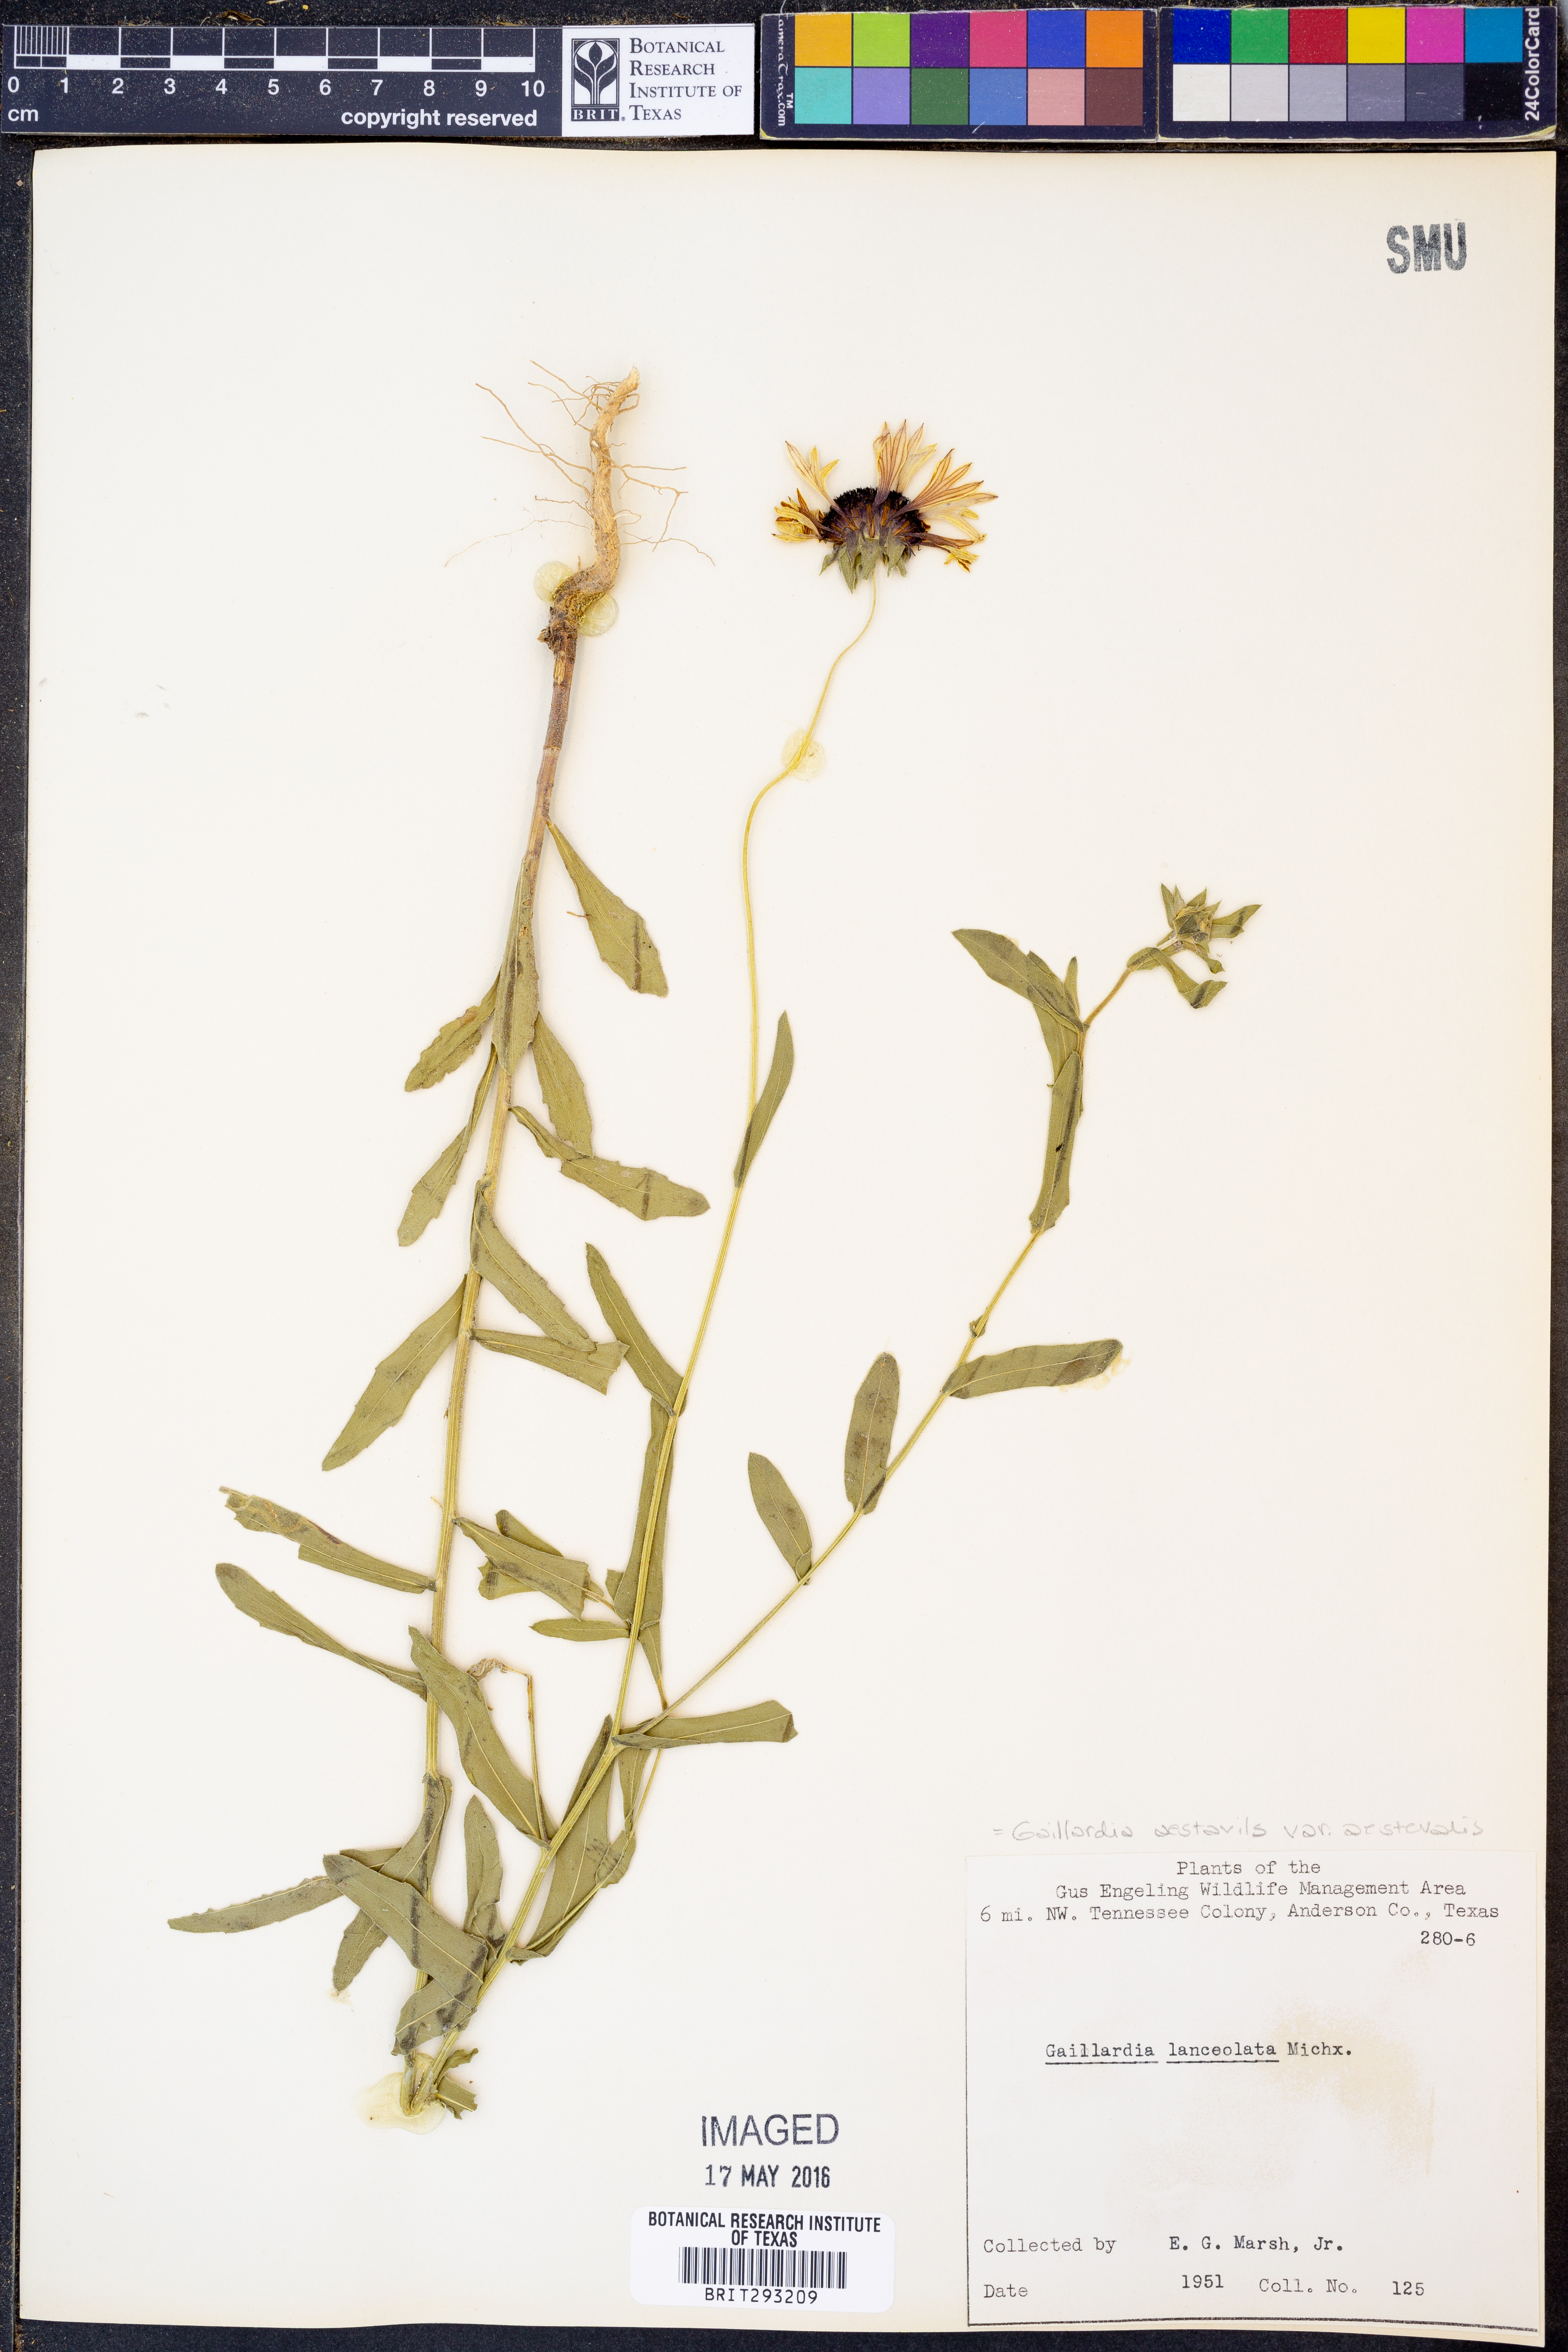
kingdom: Plantae
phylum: Tracheophyta
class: Magnoliopsida
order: Asterales
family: Asteraceae
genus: Gaillardia
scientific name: Gaillardia aestivalis
